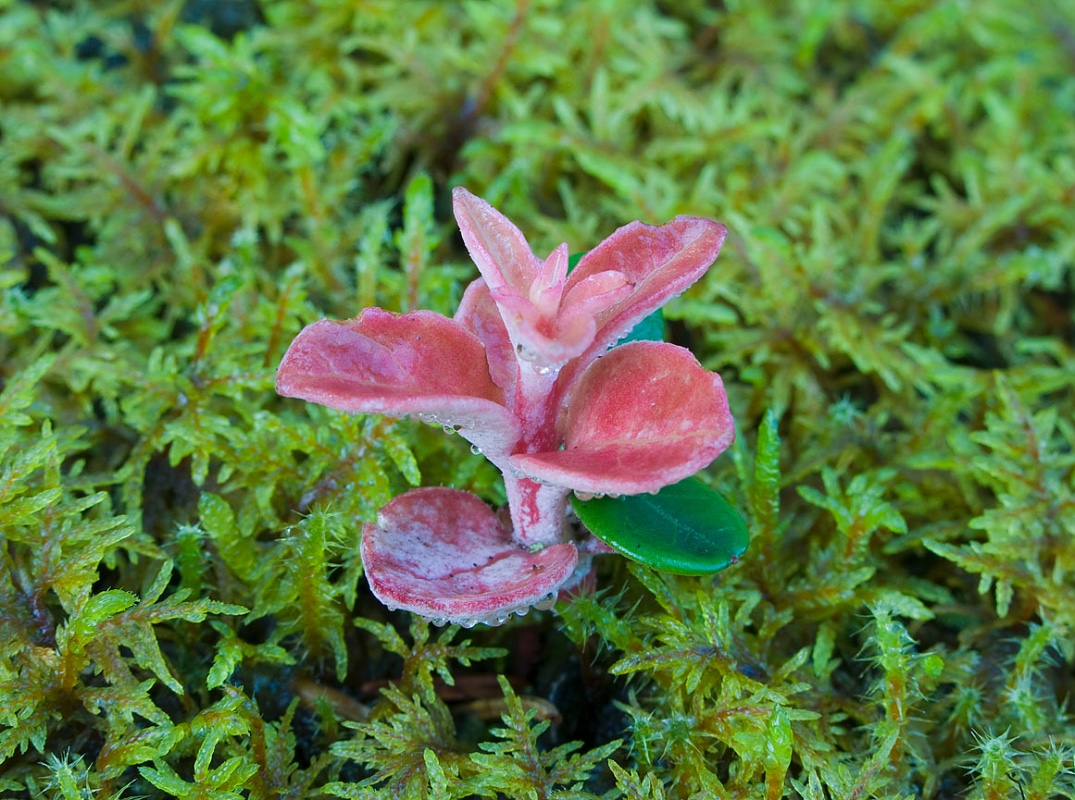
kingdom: Fungi
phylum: Basidiomycota
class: Exobasidiomycetes
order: Exobasidiales
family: Exobasidiaceae
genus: Exobasidium
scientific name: Exobasidium vaccinii
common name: tyttebærblad-bøllesvamp
